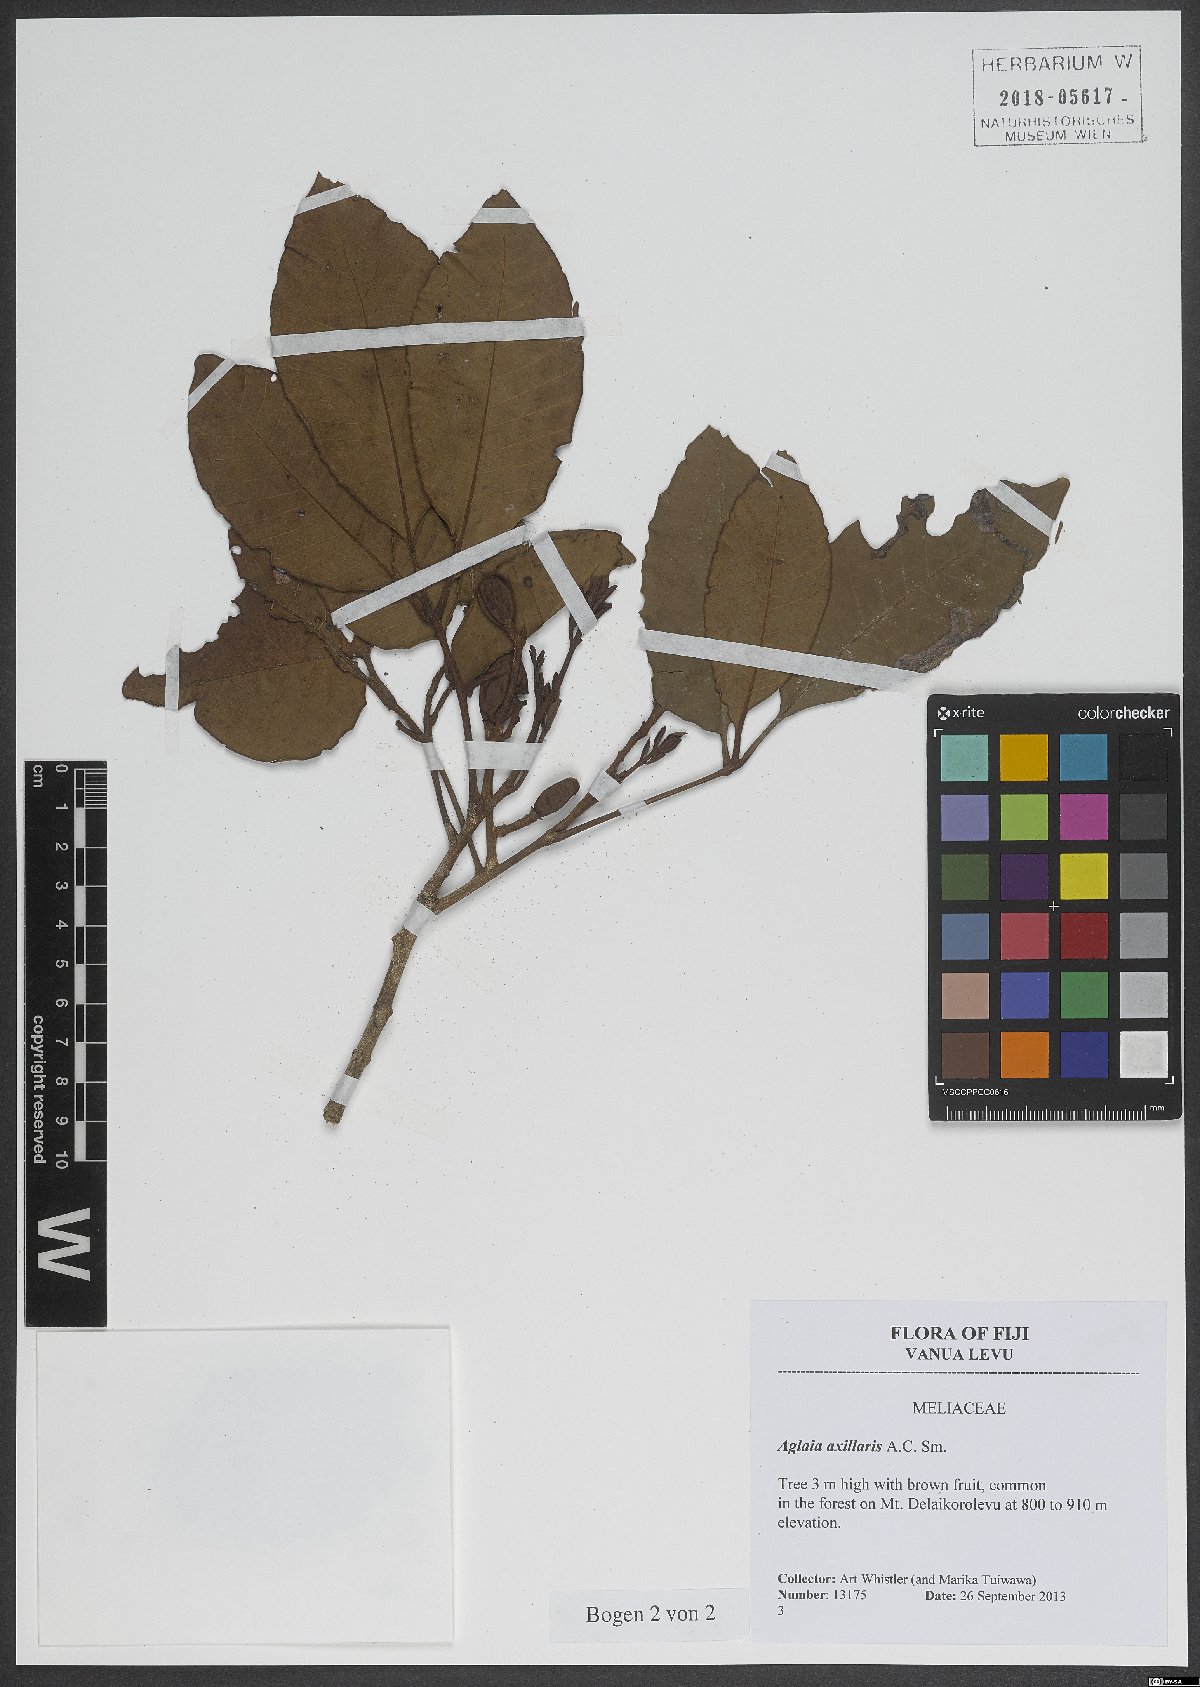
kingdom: Plantae
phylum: Tracheophyta
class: Magnoliopsida
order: Sapindales
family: Meliaceae
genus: Aglaia
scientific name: Aglaia vitiensis
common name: Lindiyango
